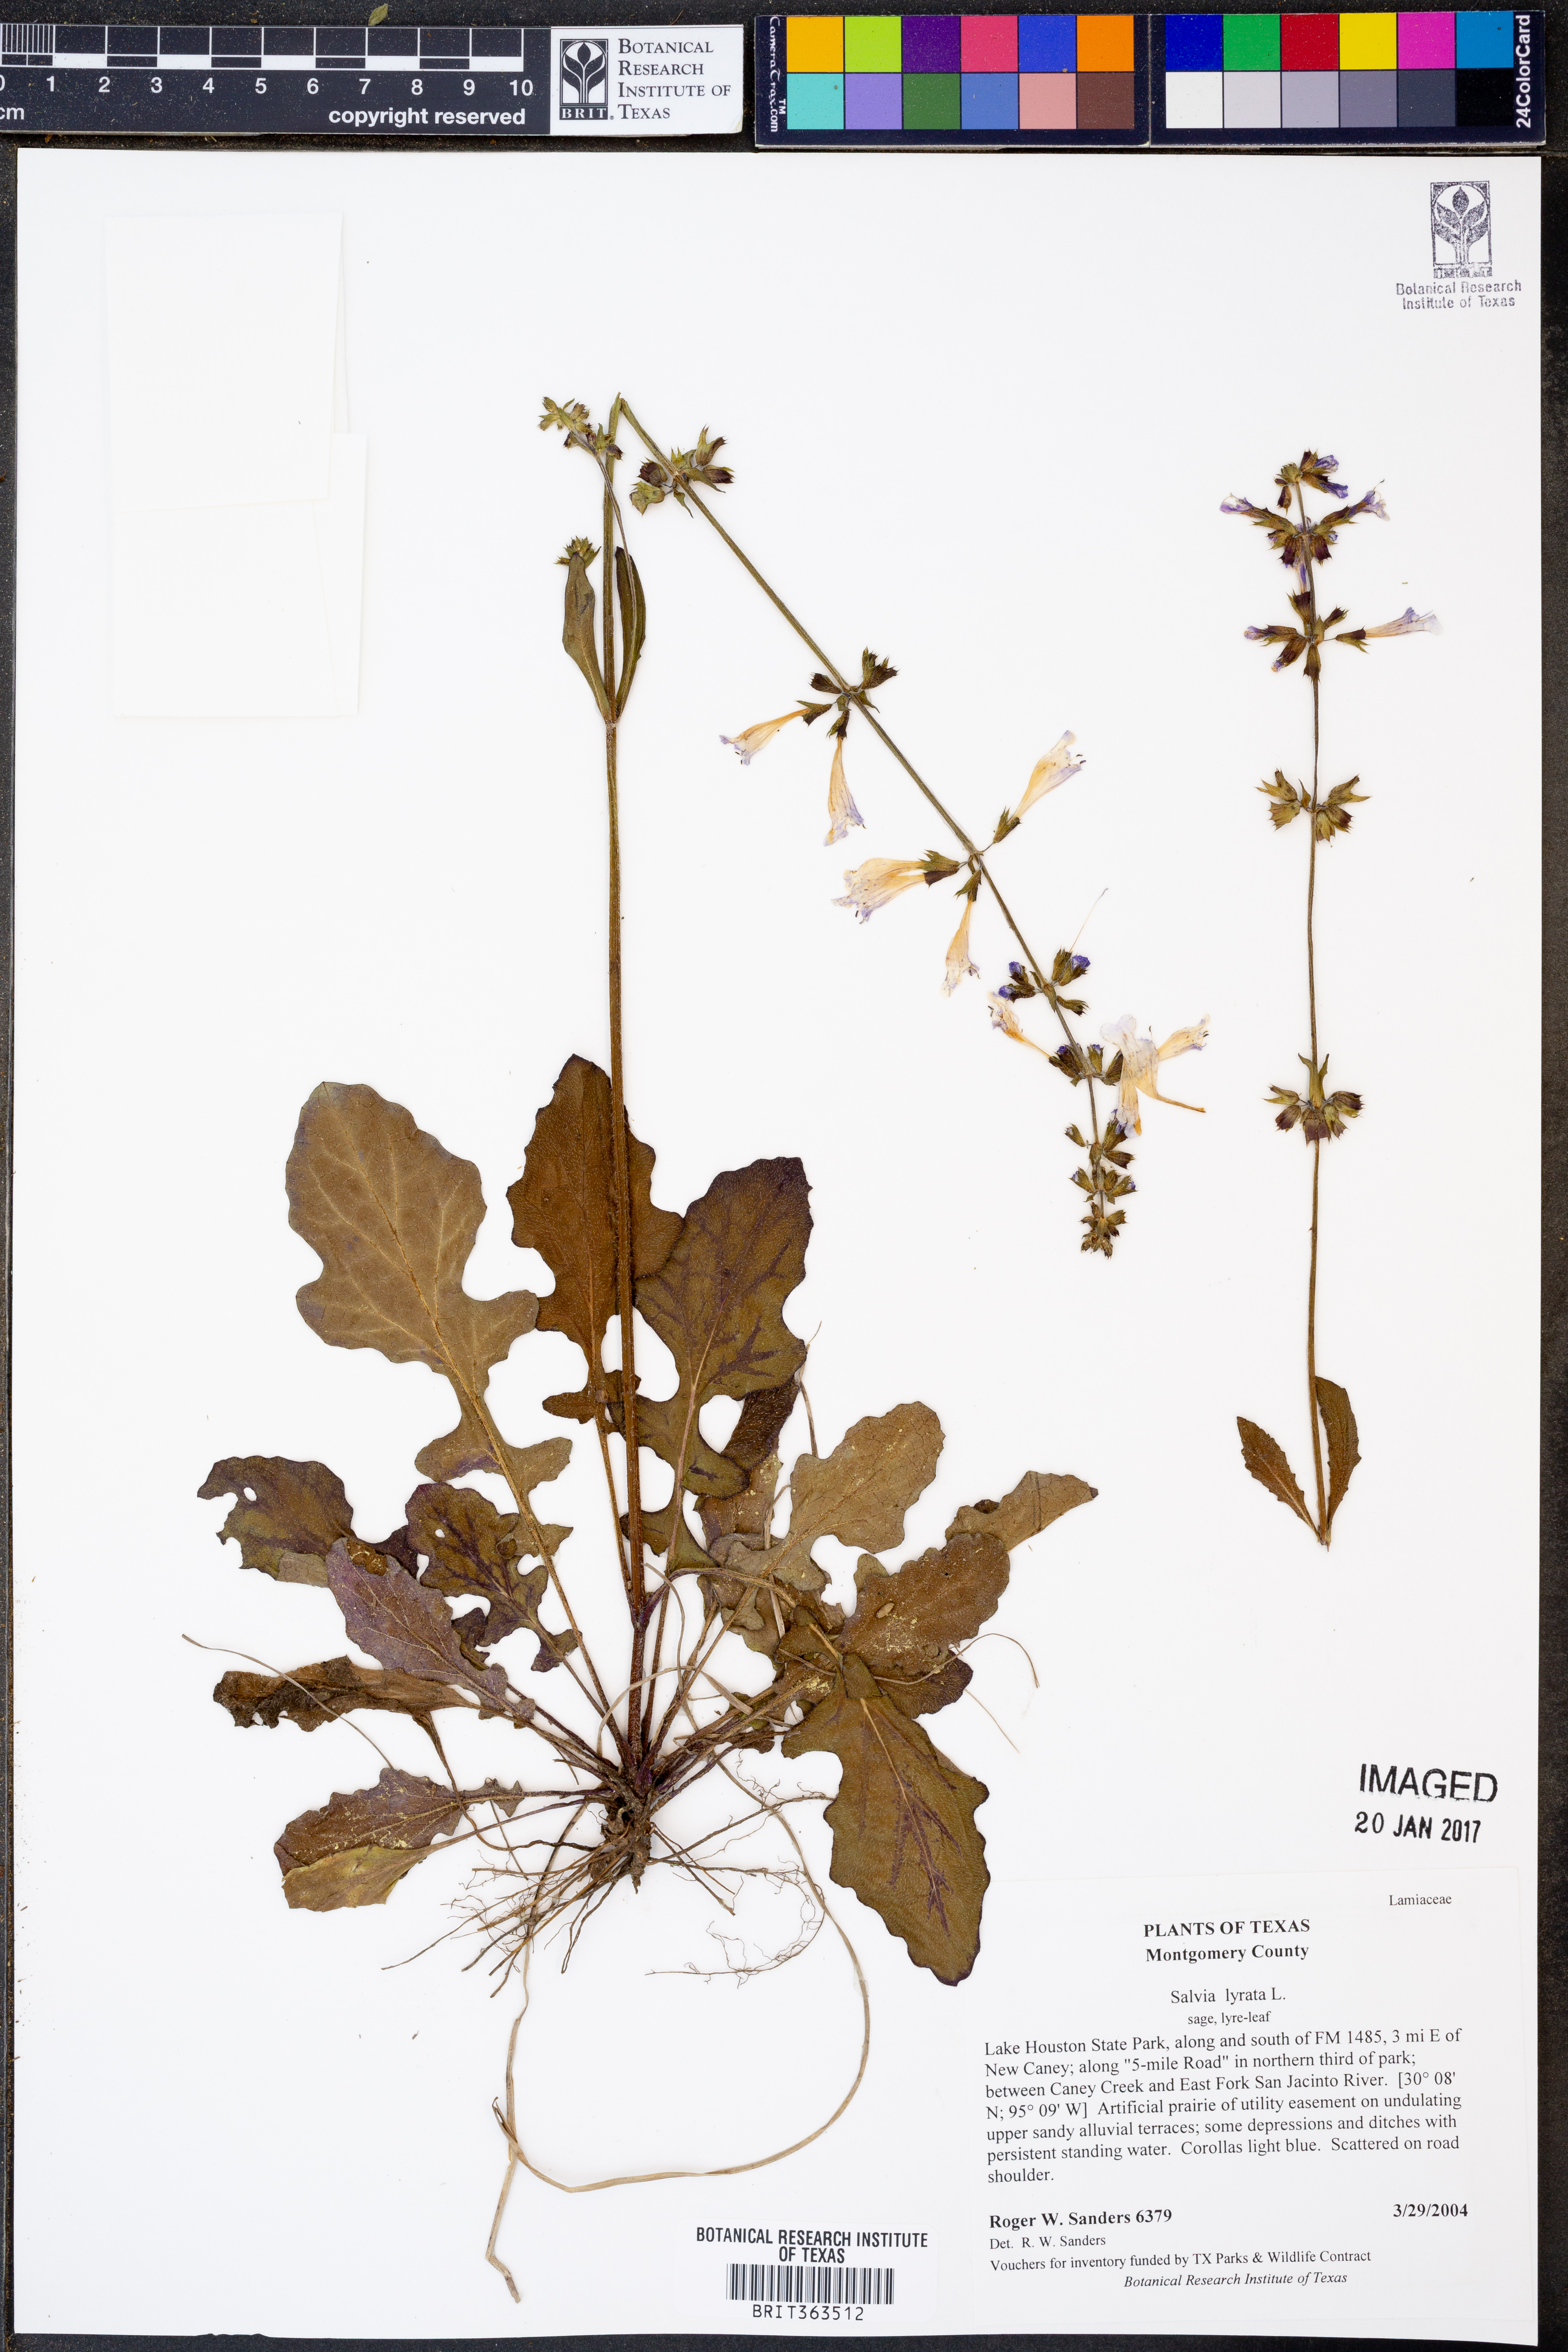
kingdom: Plantae
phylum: Tracheophyta
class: Magnoliopsida
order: Lamiales
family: Lamiaceae
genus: Salvia
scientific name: Salvia lyrata
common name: Cancerweed
